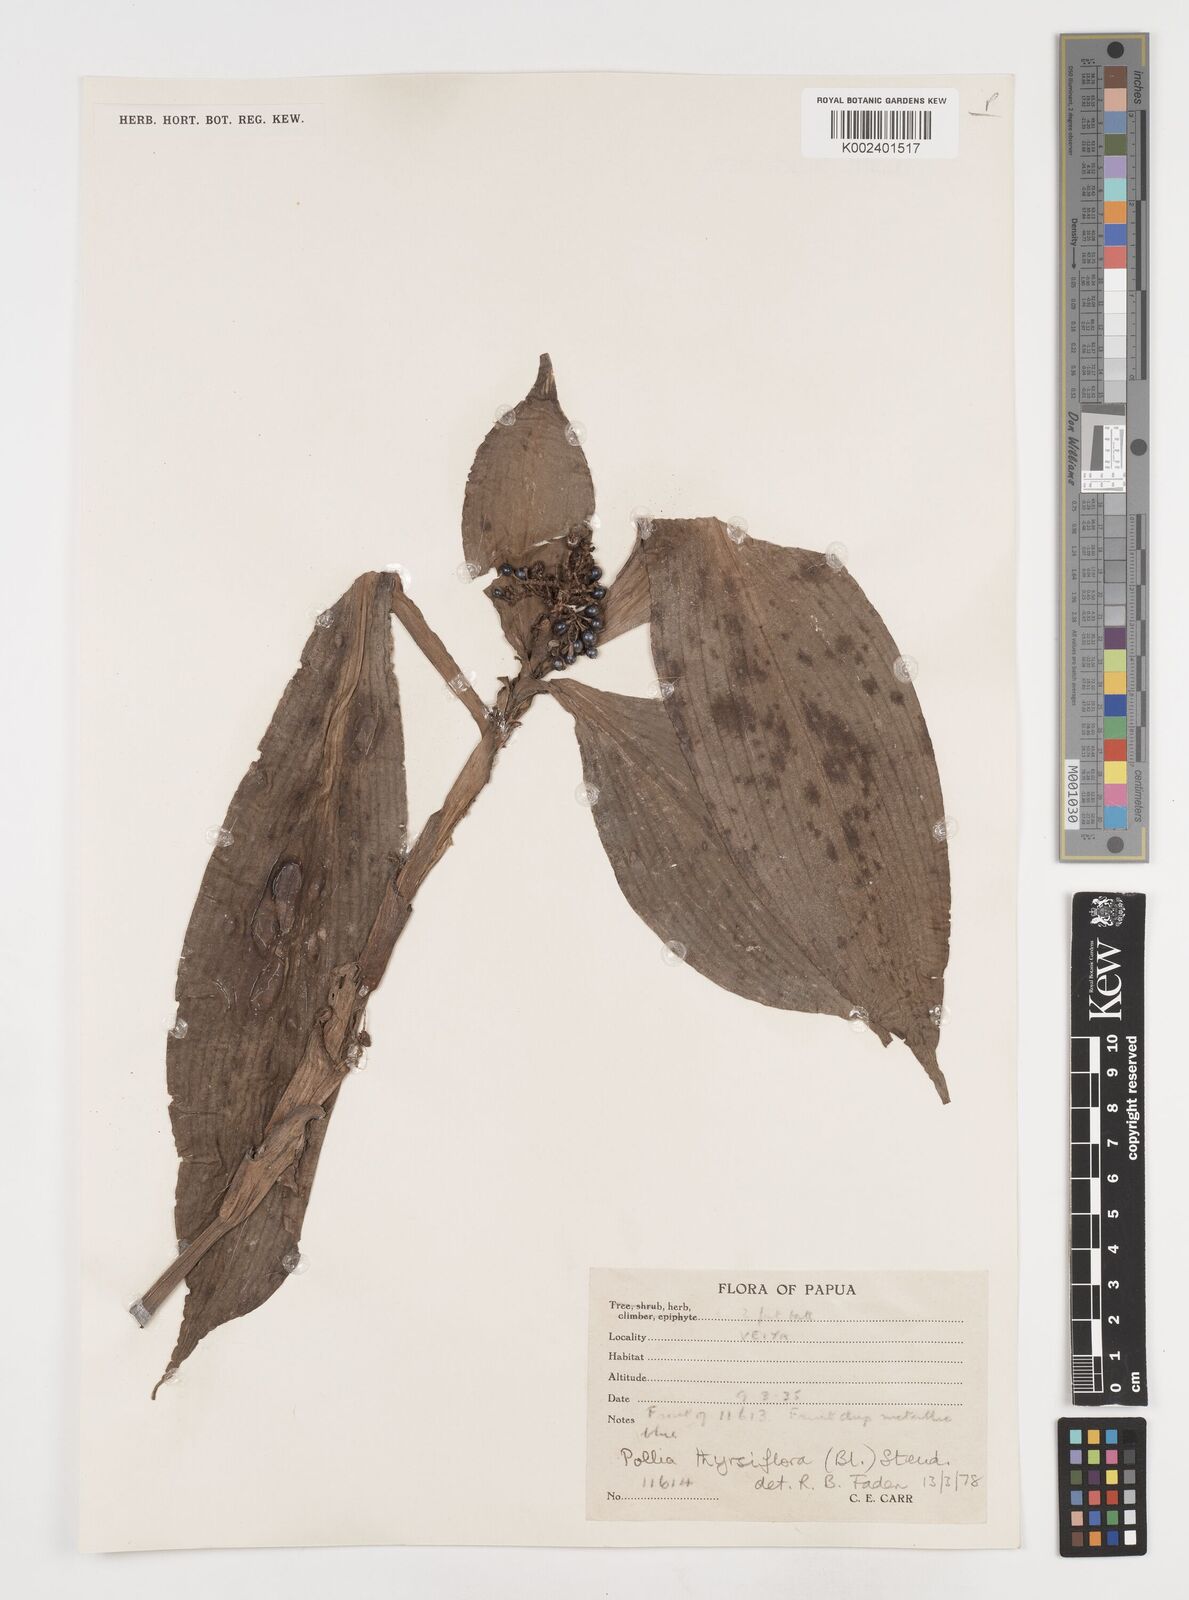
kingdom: Plantae
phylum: Tracheophyta
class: Liliopsida
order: Commelinales
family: Commelinaceae
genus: Pollia
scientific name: Pollia thyrsiflora
